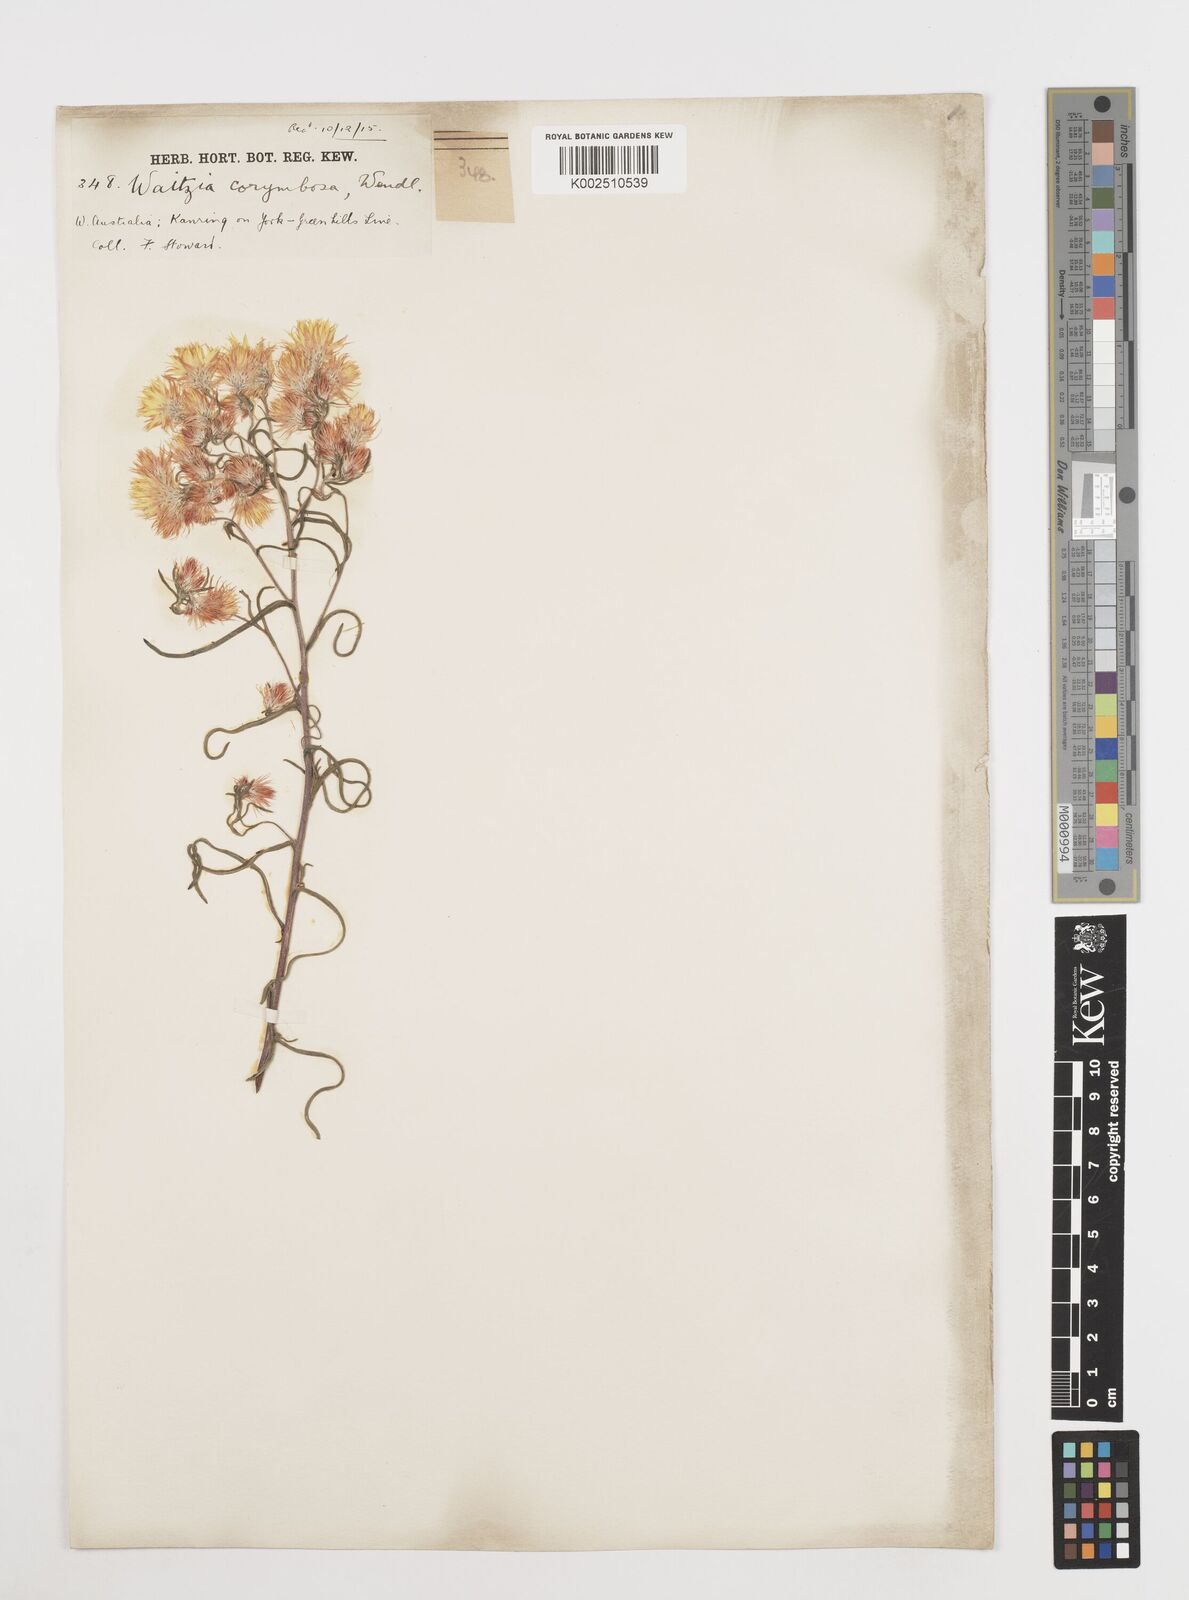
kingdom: Plantae
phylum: Tracheophyta
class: Magnoliopsida
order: Asterales
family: Asteraceae
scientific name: Asteraceae
